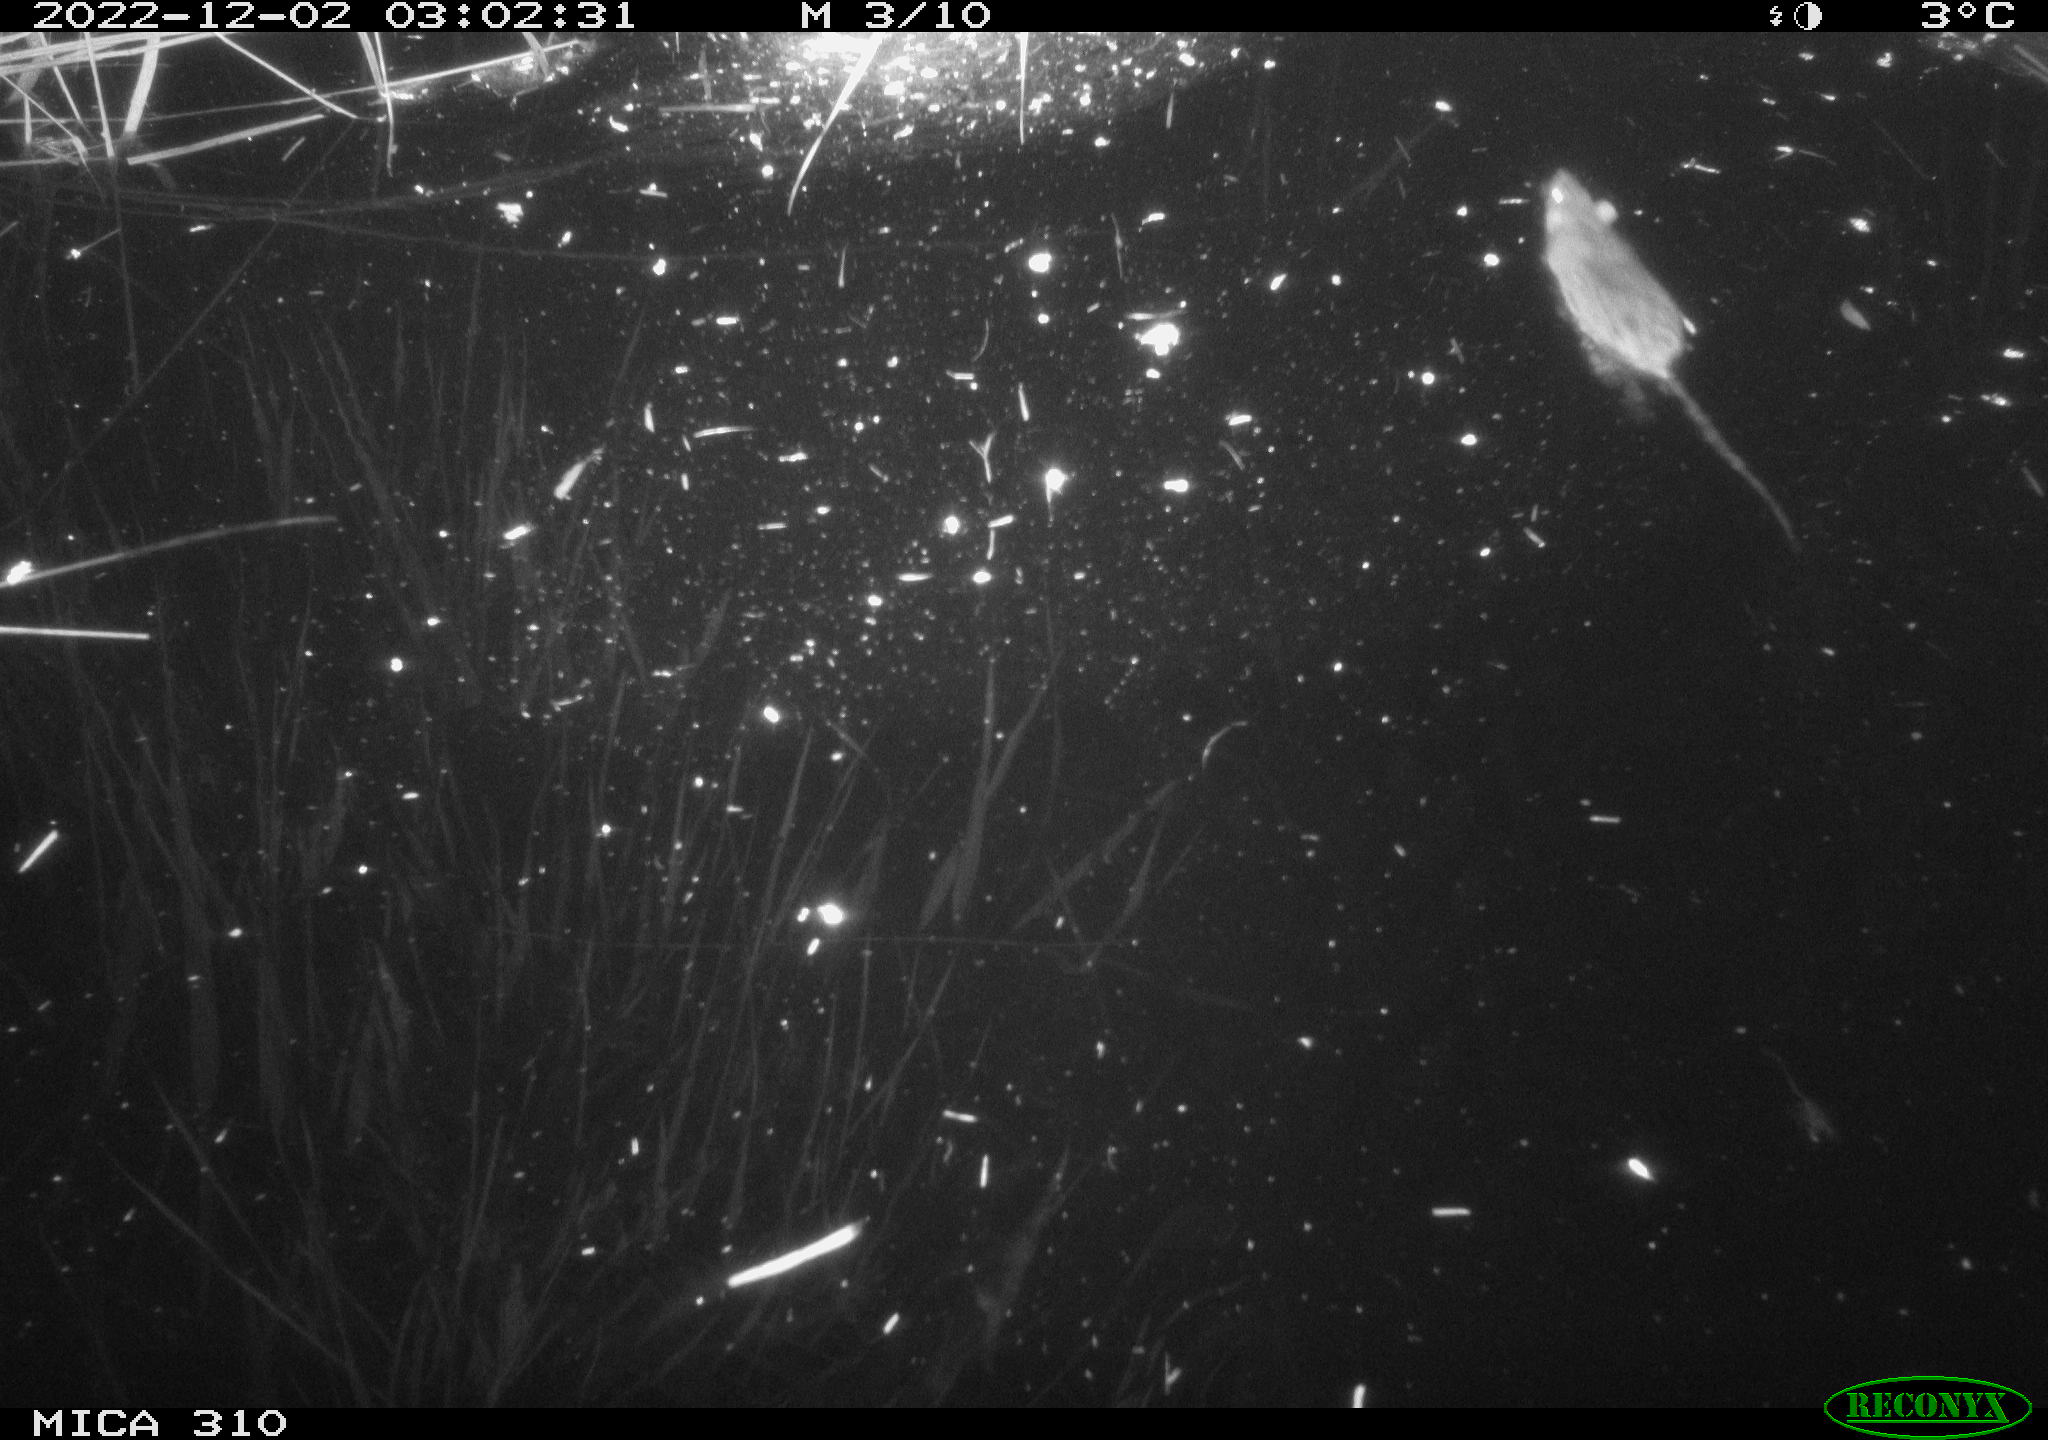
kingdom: Animalia
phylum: Chordata
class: Mammalia
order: Rodentia
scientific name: Rodentia
